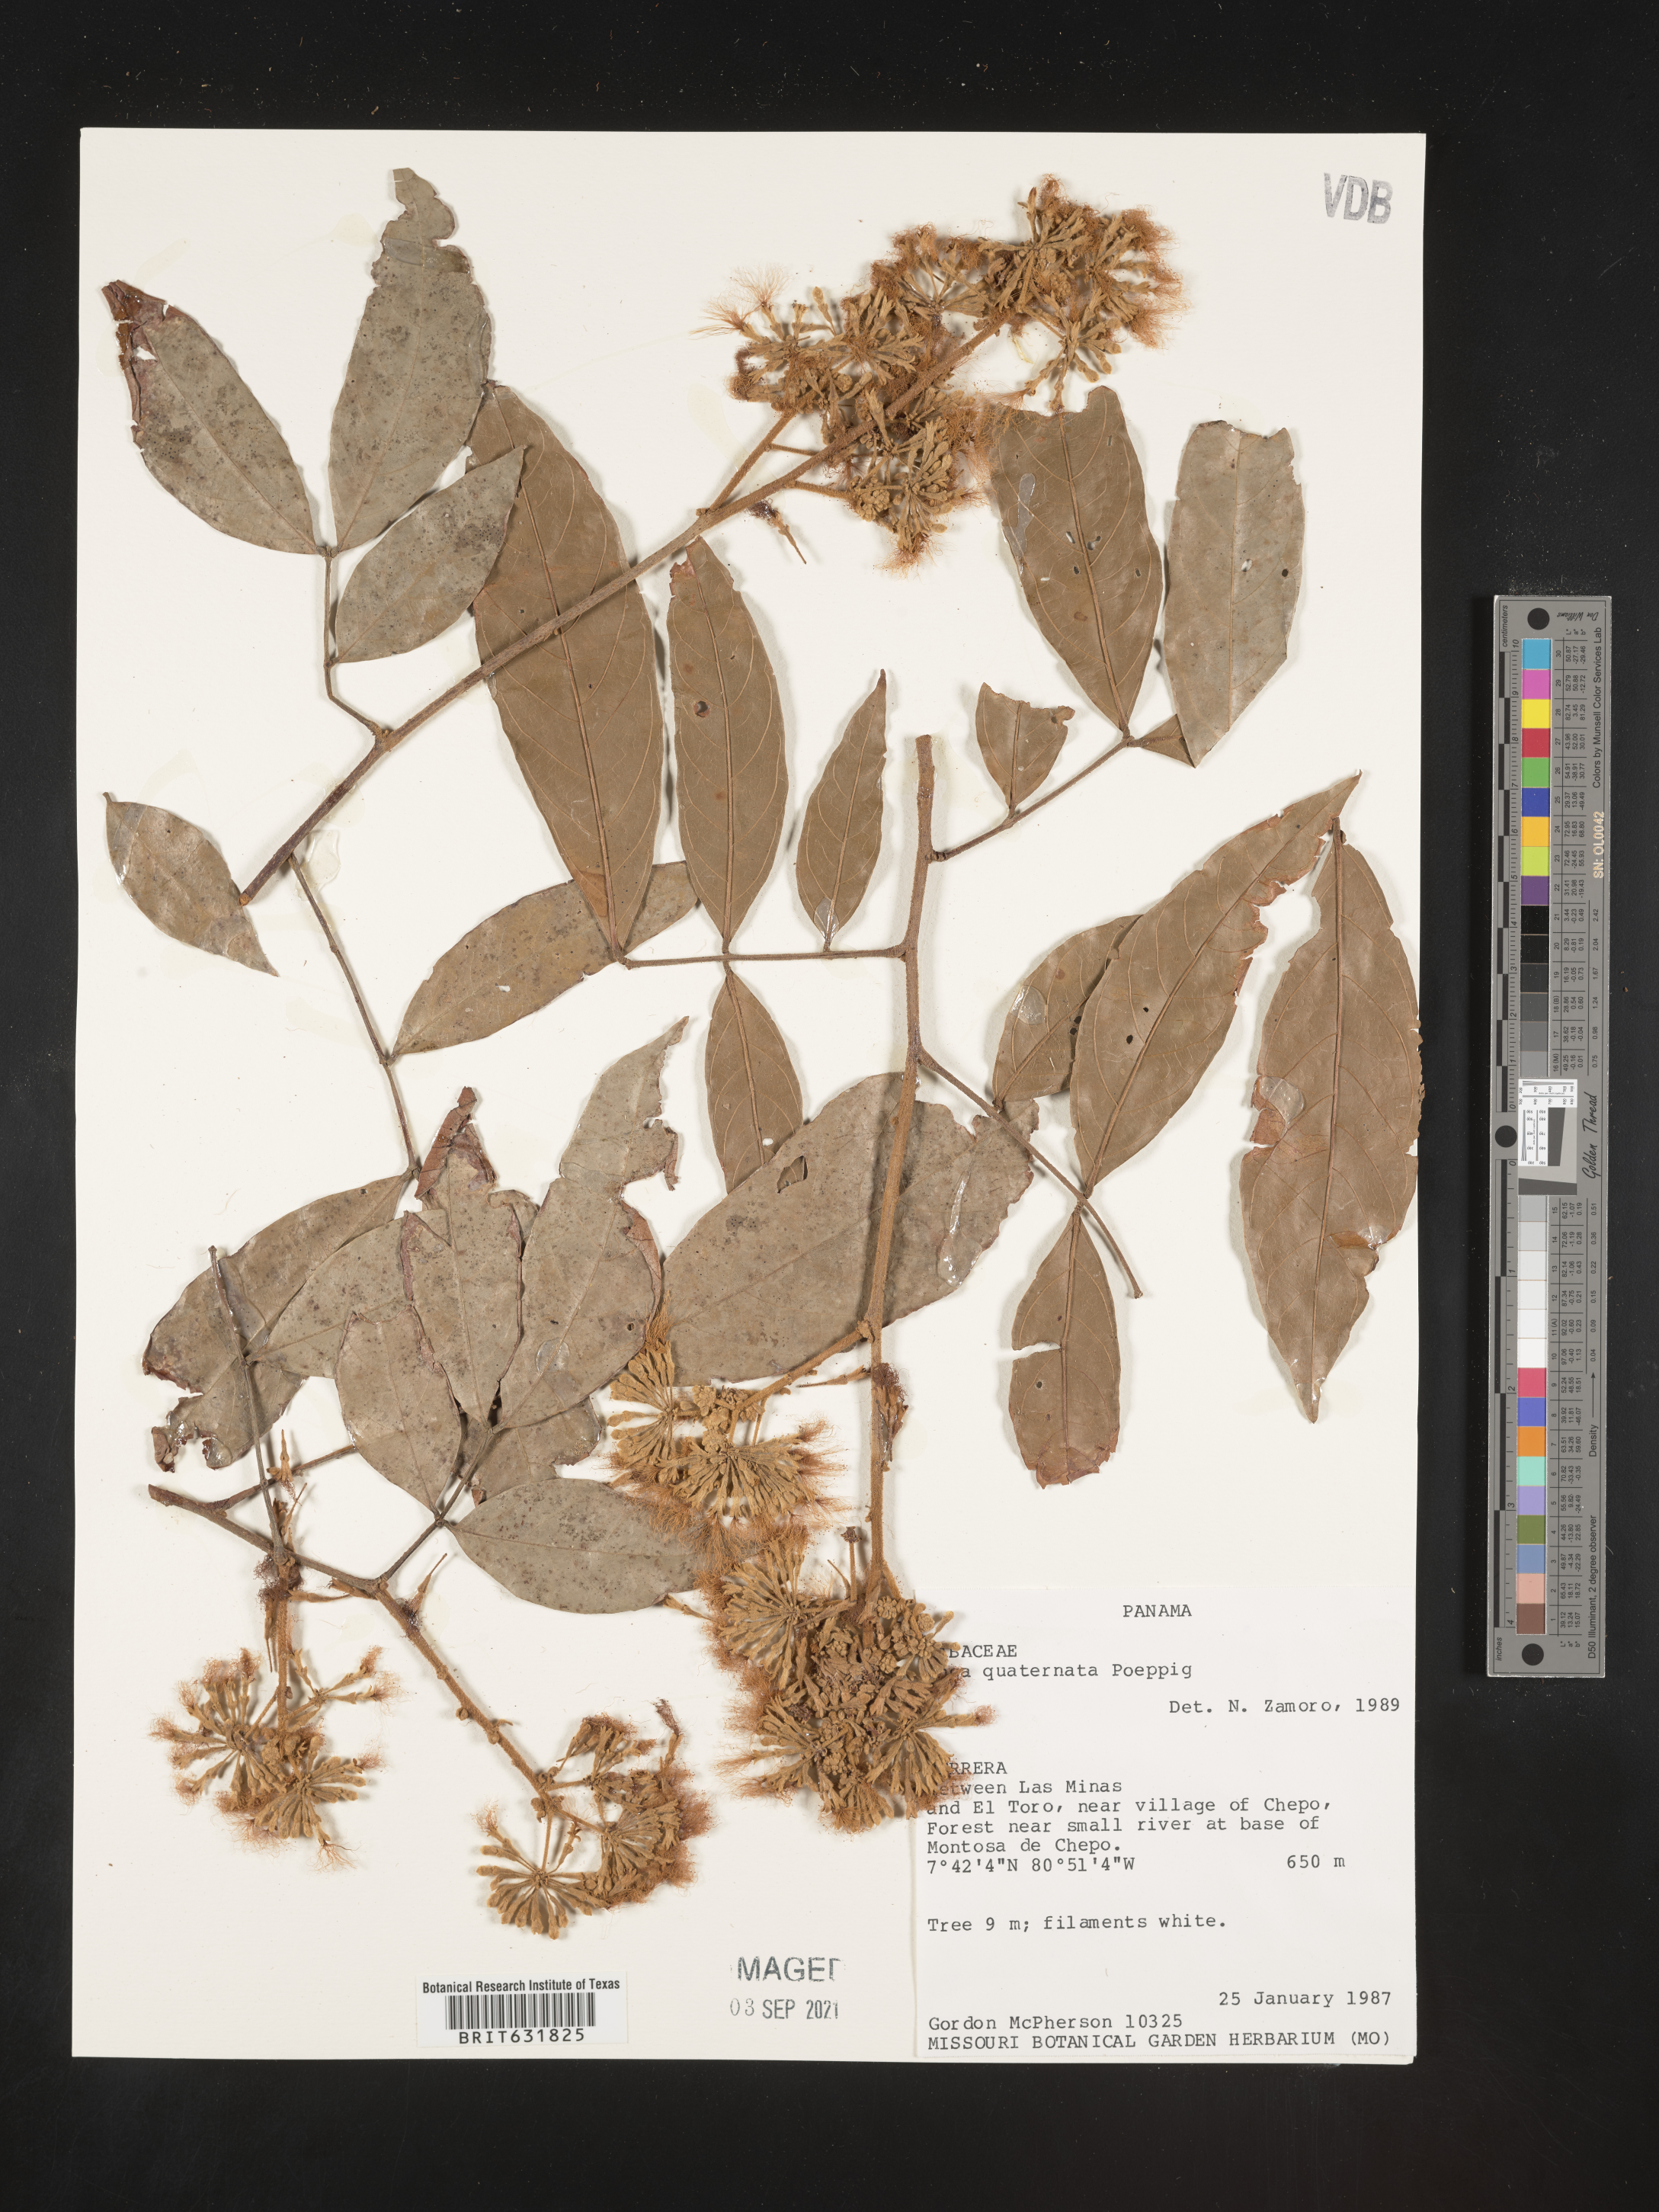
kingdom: Plantae
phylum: Tracheophyta
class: Magnoliopsida
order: Fabales
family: Fabaceae
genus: Inga
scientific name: Inga
